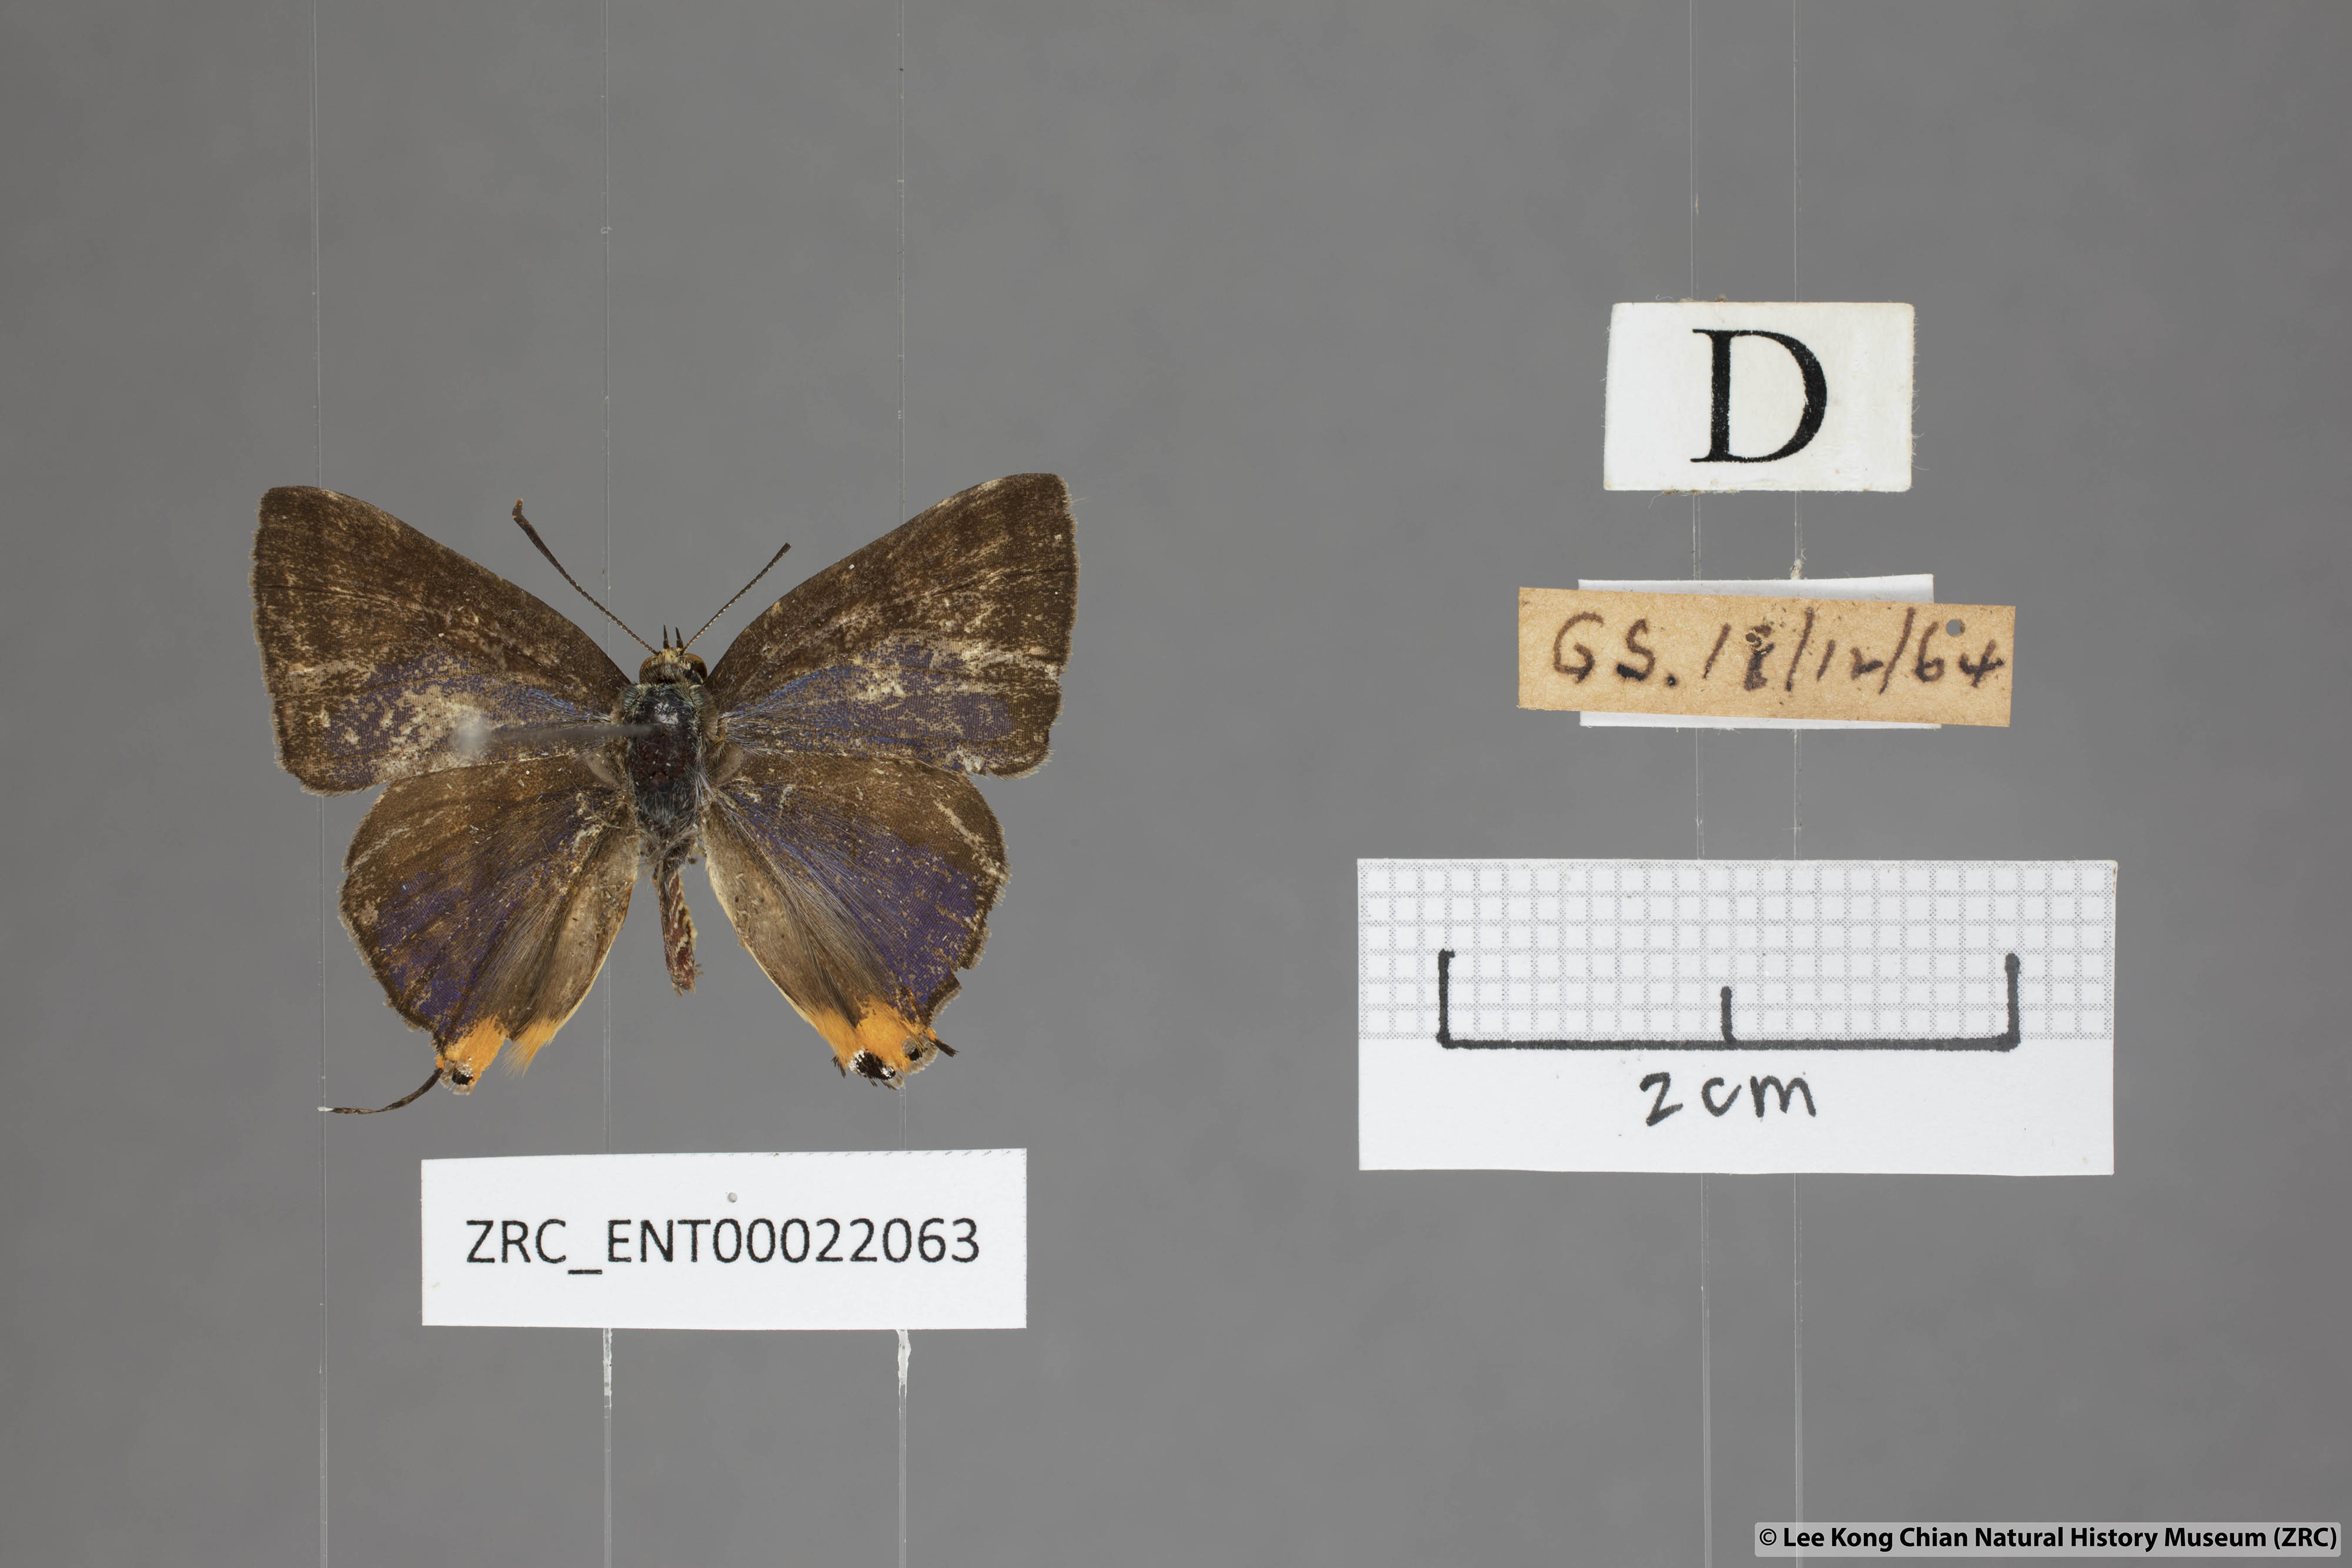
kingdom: Animalia
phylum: Arthropoda
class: Insecta
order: Lepidoptera
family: Lycaenidae
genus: Spindasis
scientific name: Spindasis lohita
